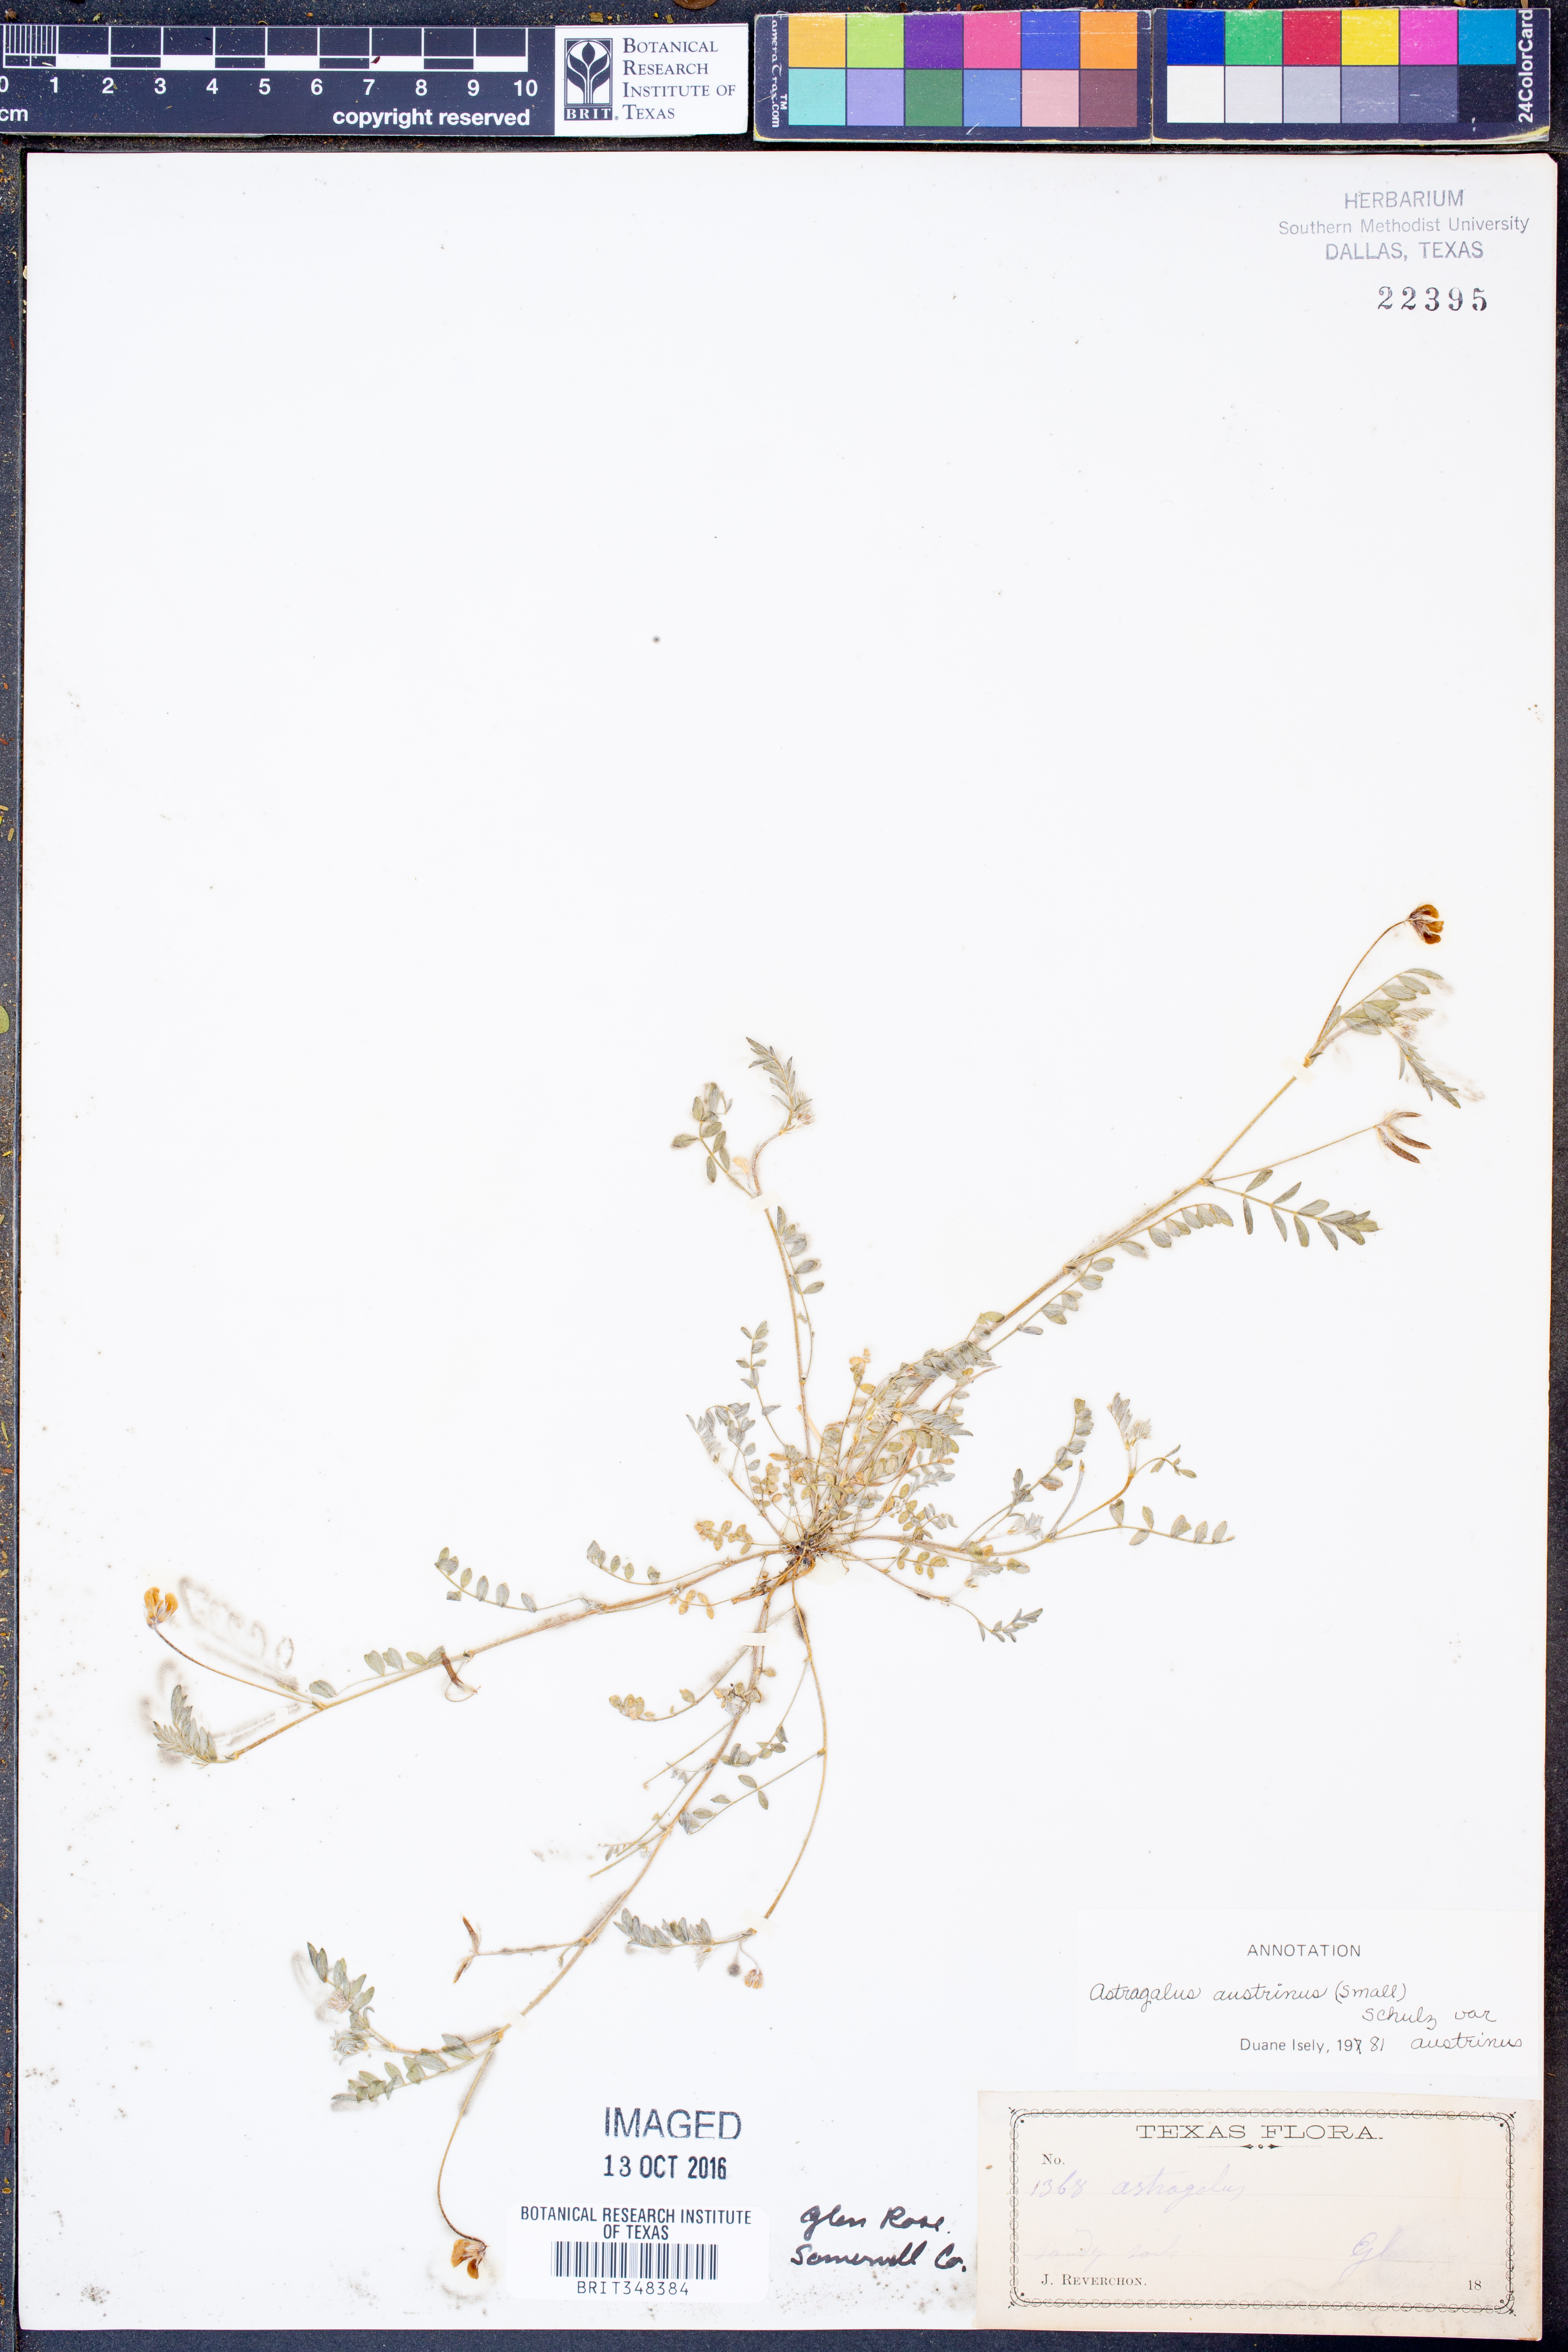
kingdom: Plantae
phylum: Tracheophyta
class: Magnoliopsida
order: Fabales
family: Fabaceae
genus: Astragalus
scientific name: Astragalus nuttallianus
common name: Smallflowered milkvetch
